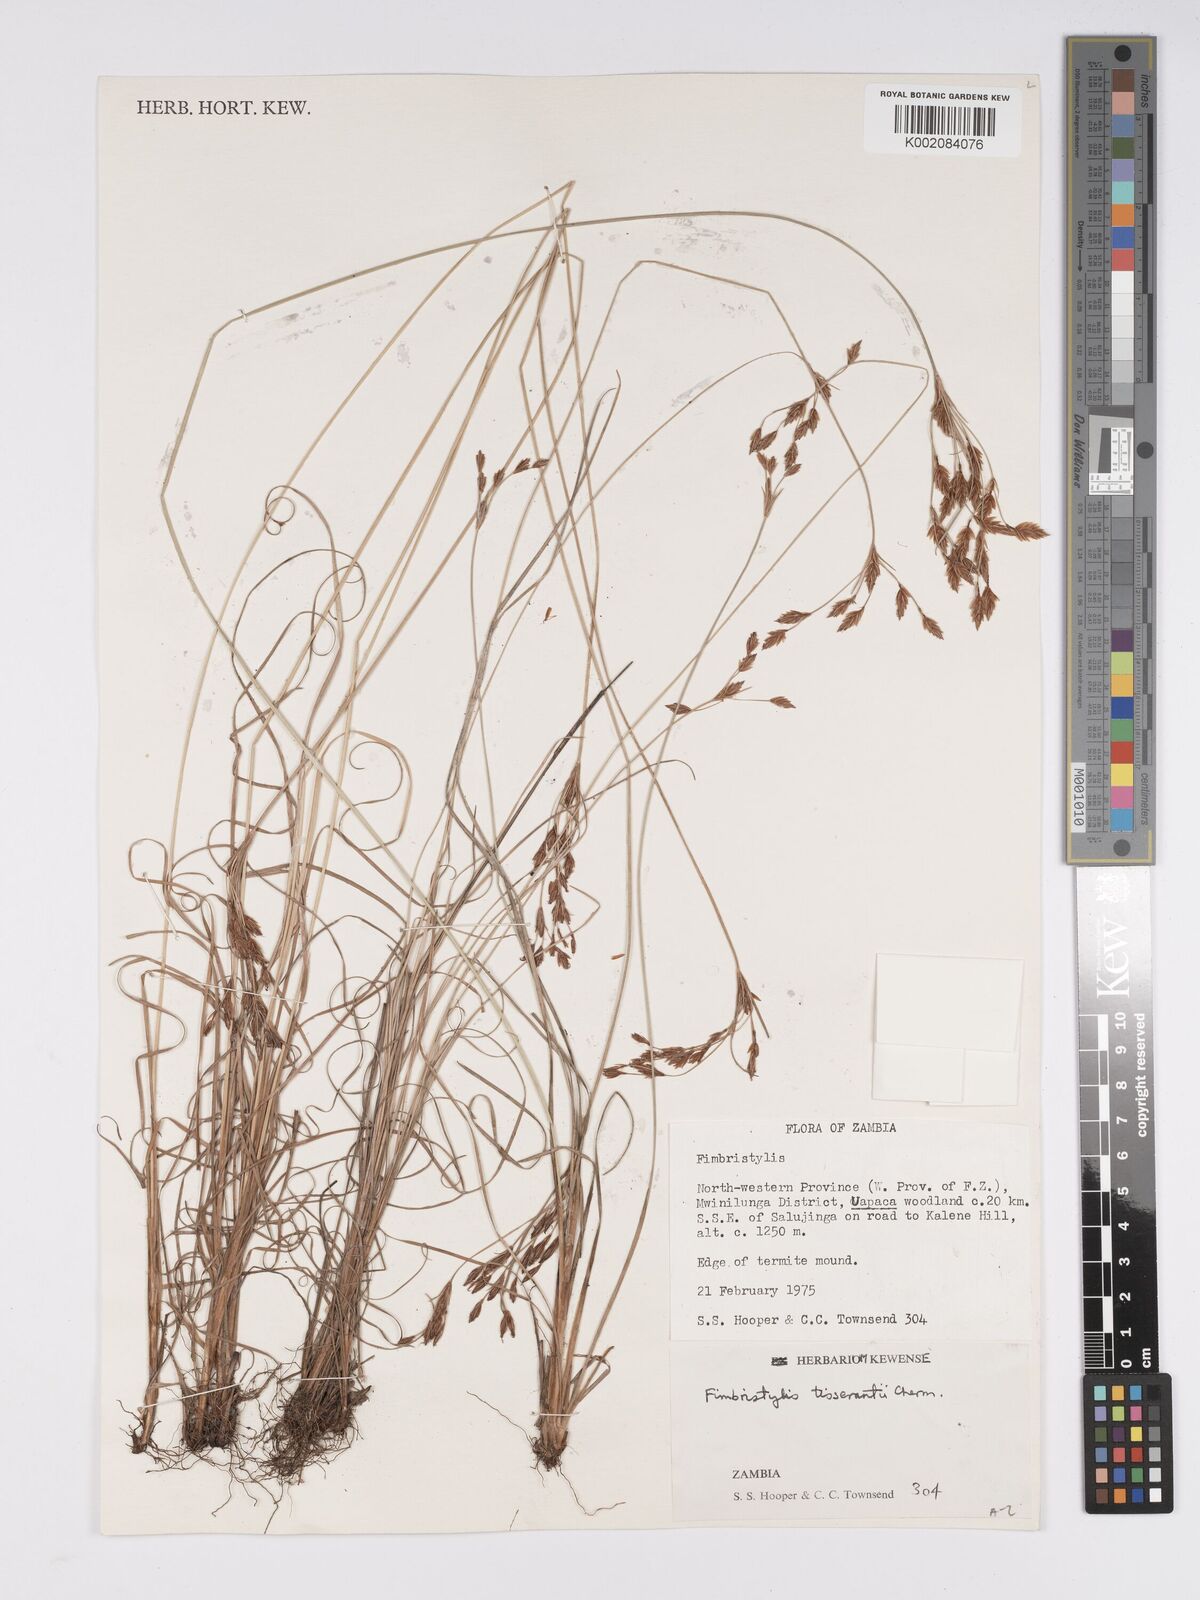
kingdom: Plantae
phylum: Tracheophyta
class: Liliopsida
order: Poales
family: Cyperaceae
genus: Bulbostylis
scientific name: Bulbostylis viridecarinata
